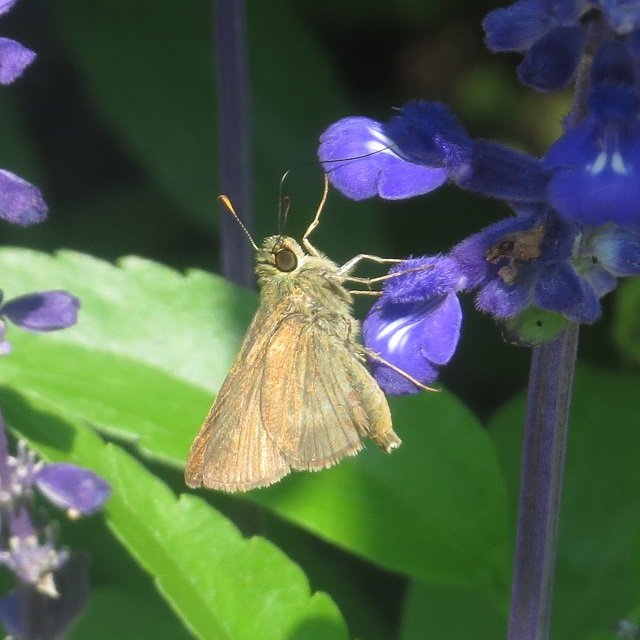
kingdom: Animalia
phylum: Arthropoda
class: Insecta
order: Lepidoptera
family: Hesperiidae
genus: Polites
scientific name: Polites egeremet
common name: Northern Broken-Dash
